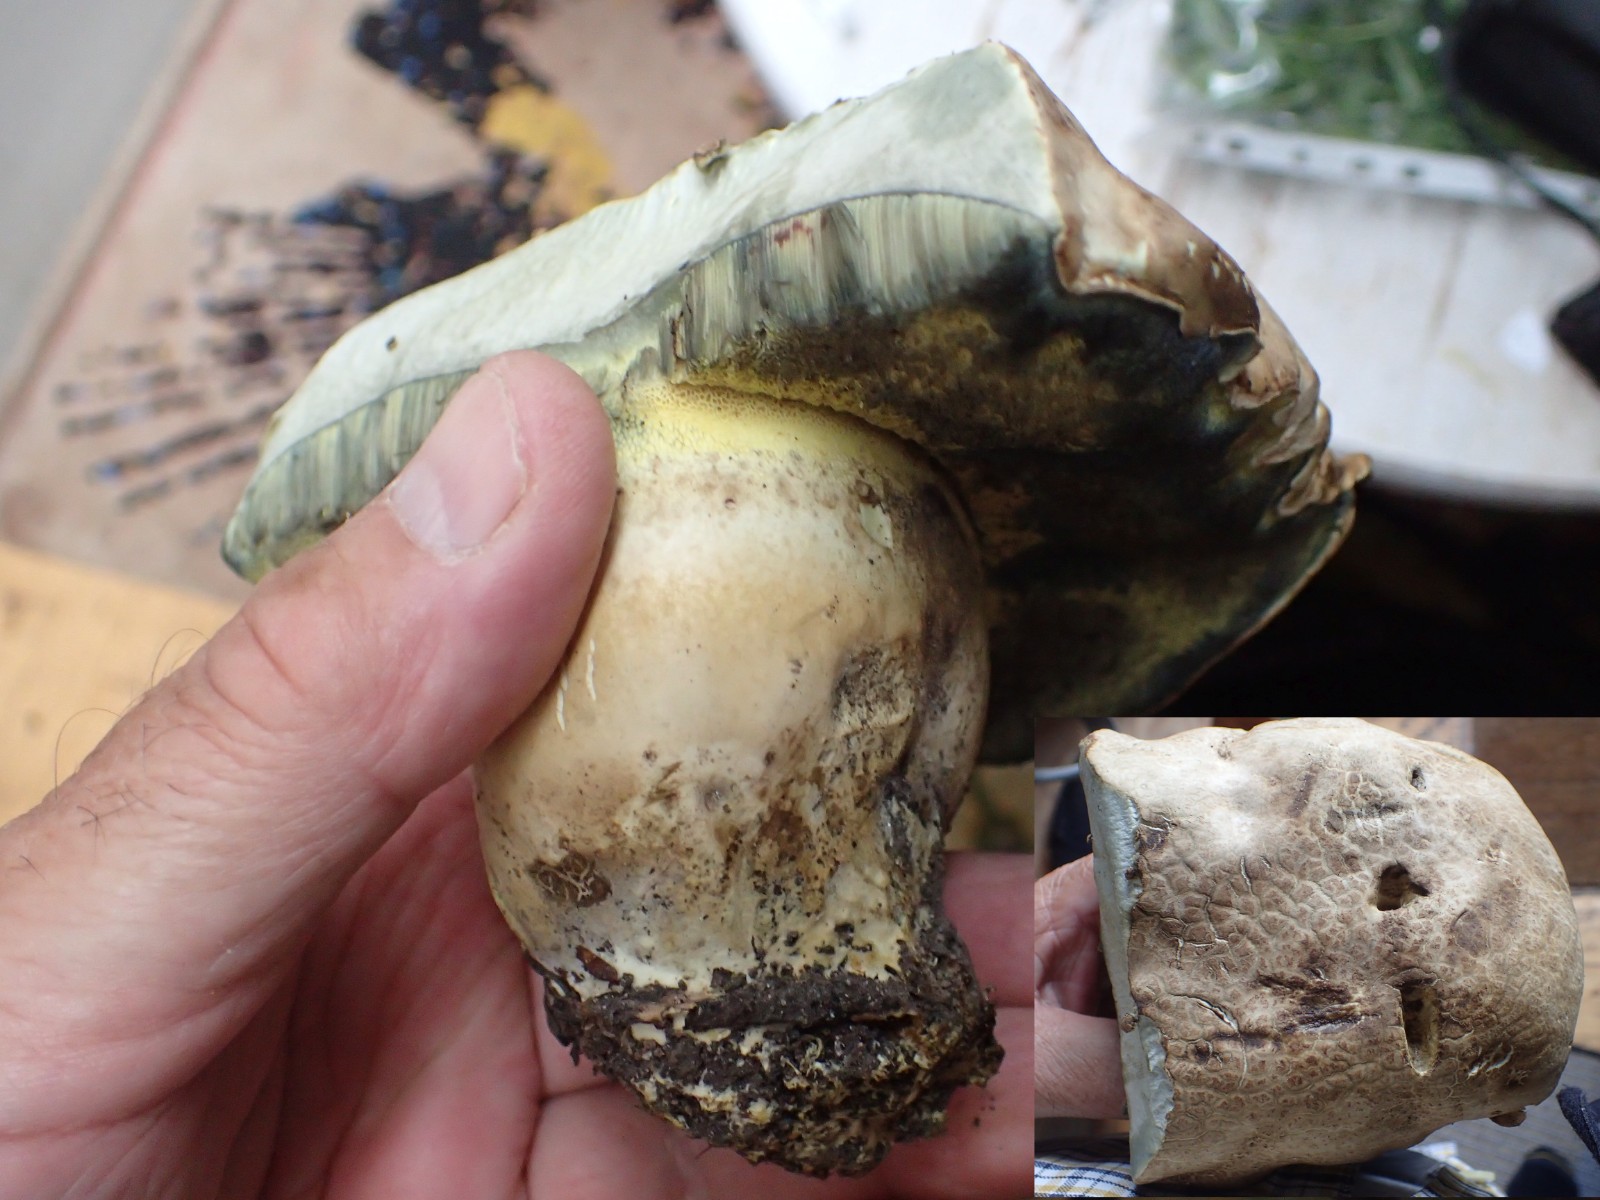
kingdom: Fungi
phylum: Basidiomycota
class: Agaricomycetes
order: Boletales
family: Boletaceae
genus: Caloboletus
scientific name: Caloboletus radicans
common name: rod-rørhat
